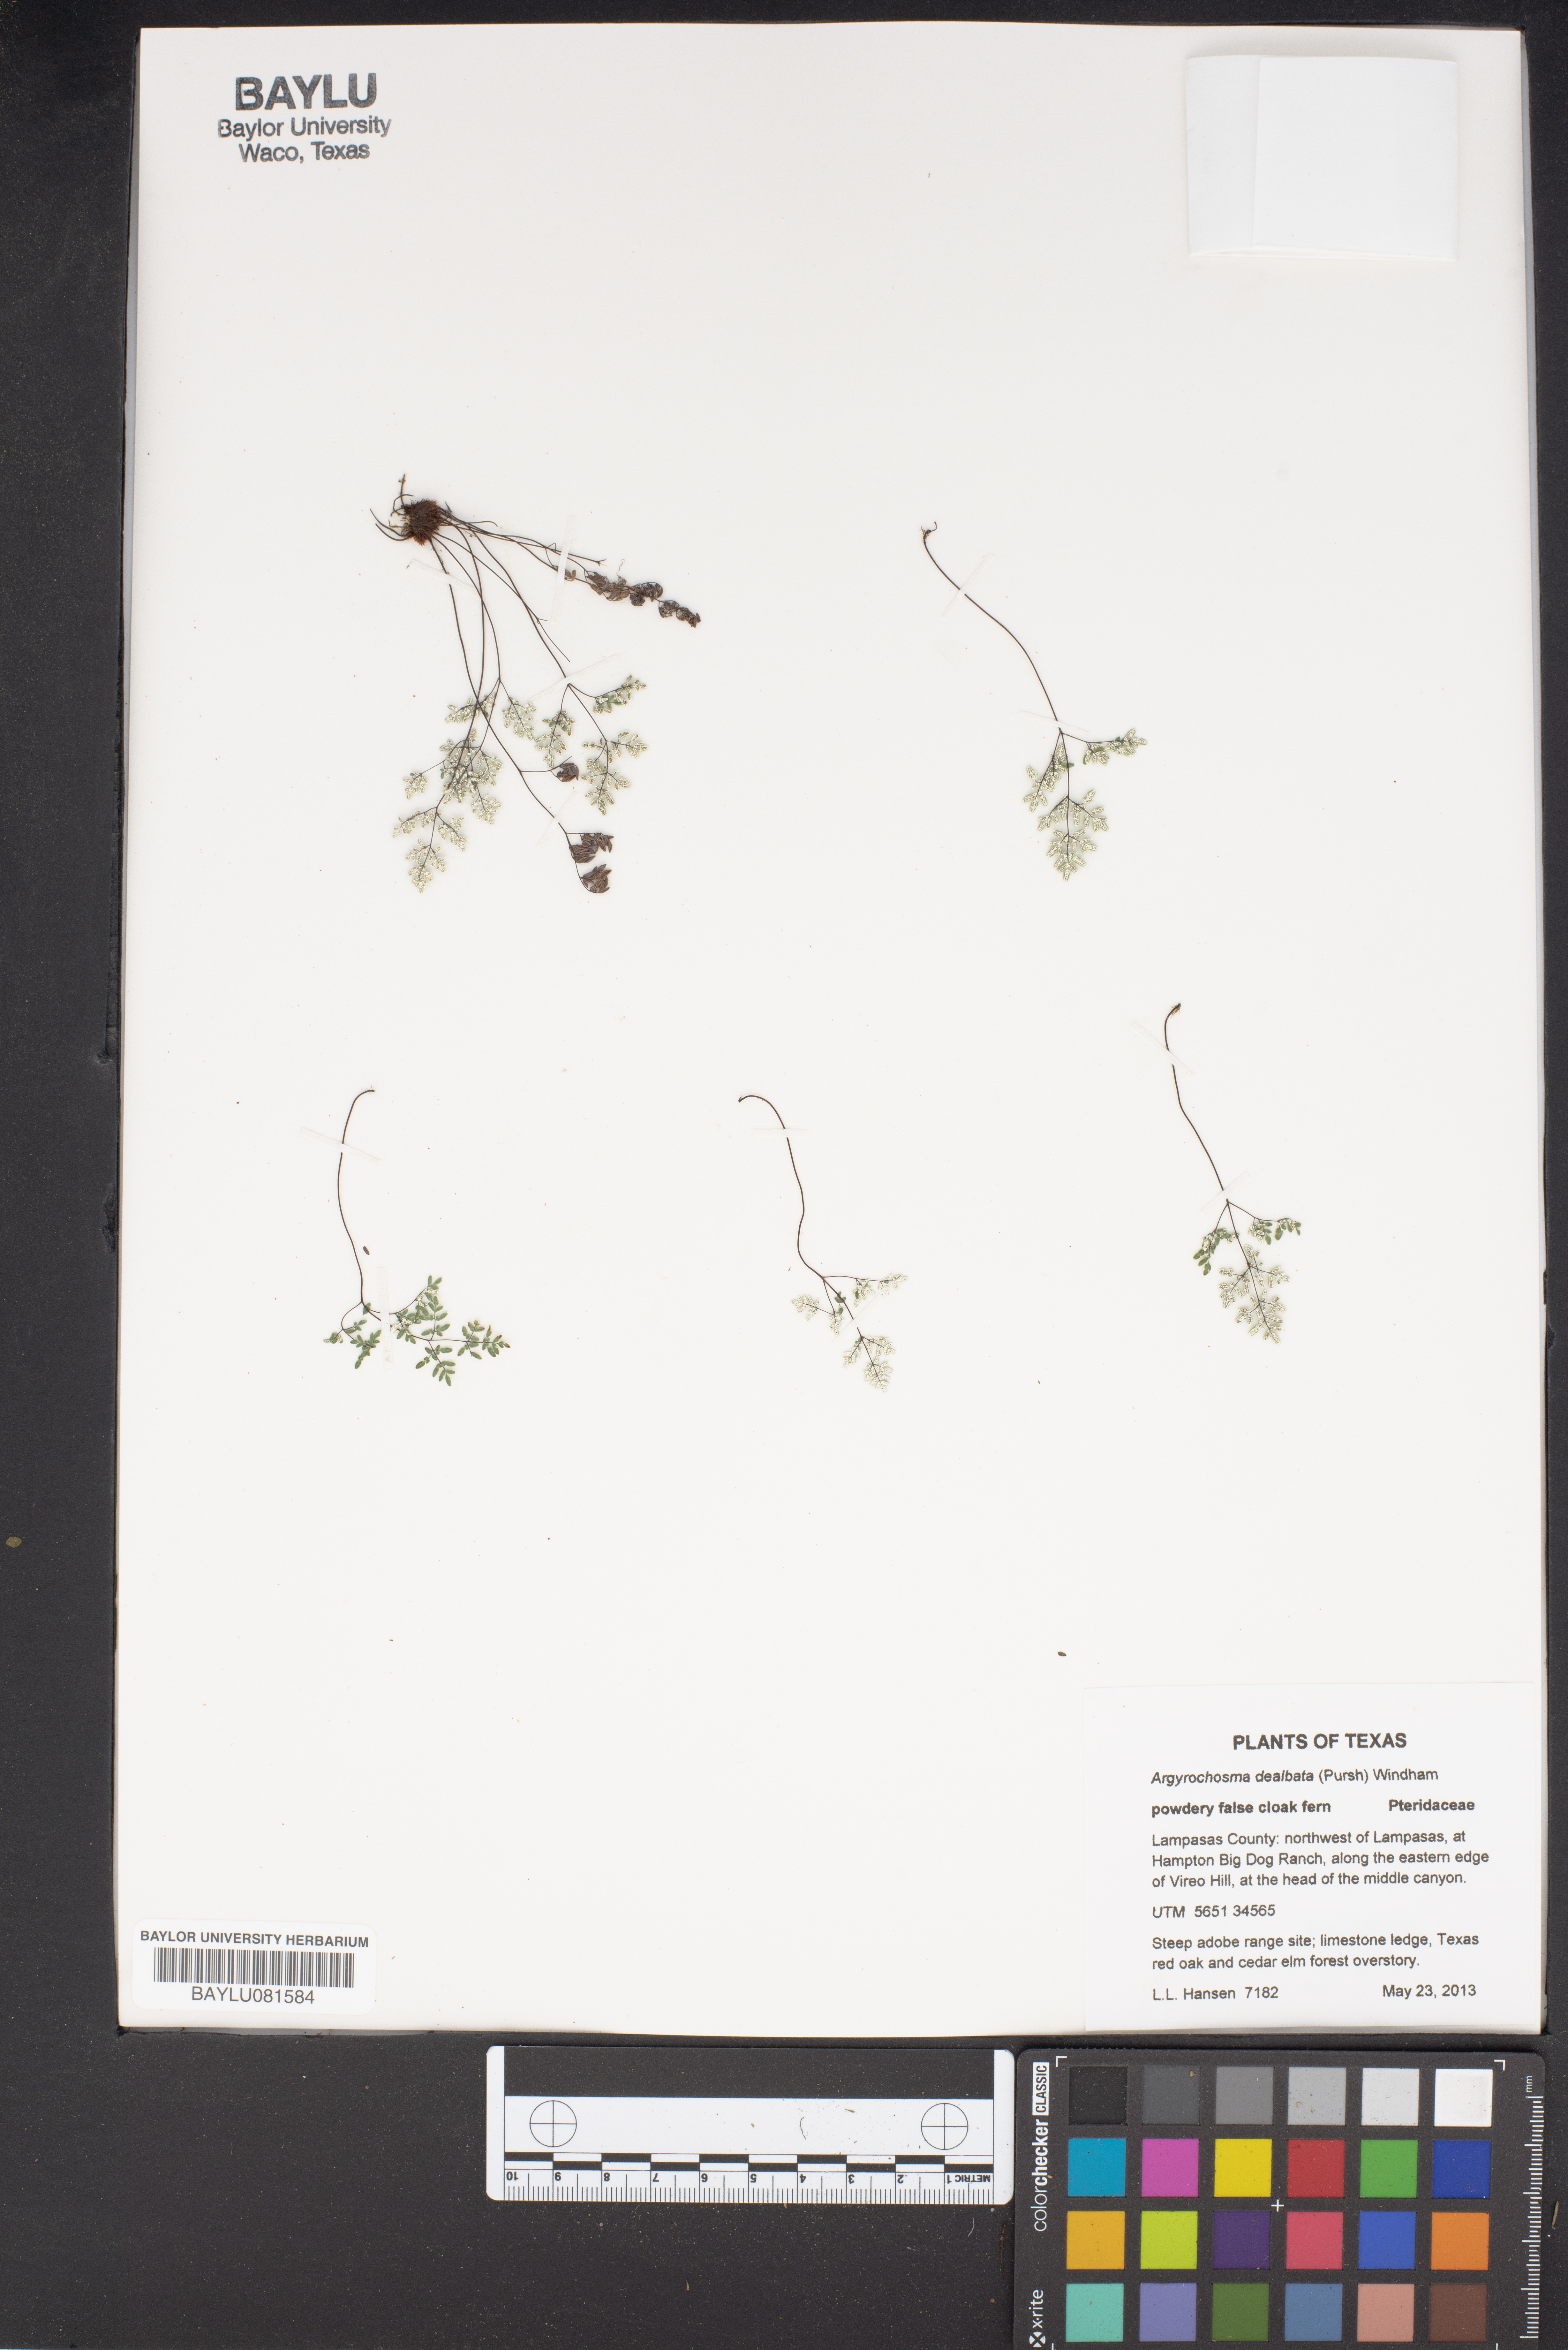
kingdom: Plantae
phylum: Tracheophyta
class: Polypodiopsida
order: Polypodiales
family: Pteridaceae
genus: Argyrochosma
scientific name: Argyrochosma dealbata
